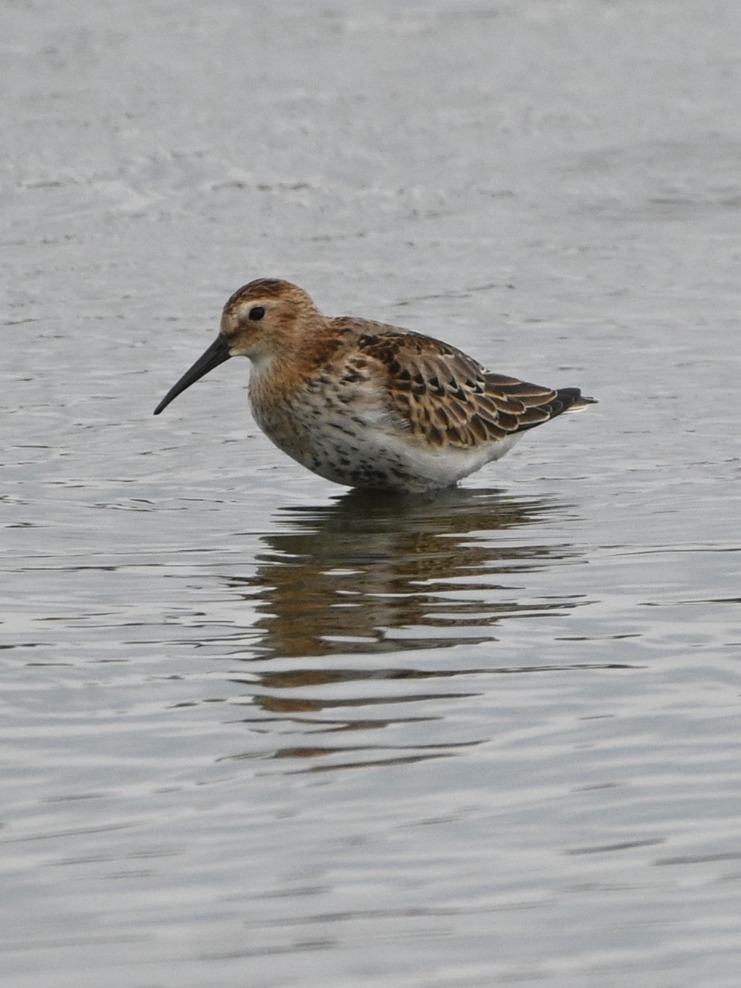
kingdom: Animalia
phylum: Chordata
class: Aves
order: Charadriiformes
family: Scolopacidae
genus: Calidris
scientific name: Calidris alpina
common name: Almindelig ryle
